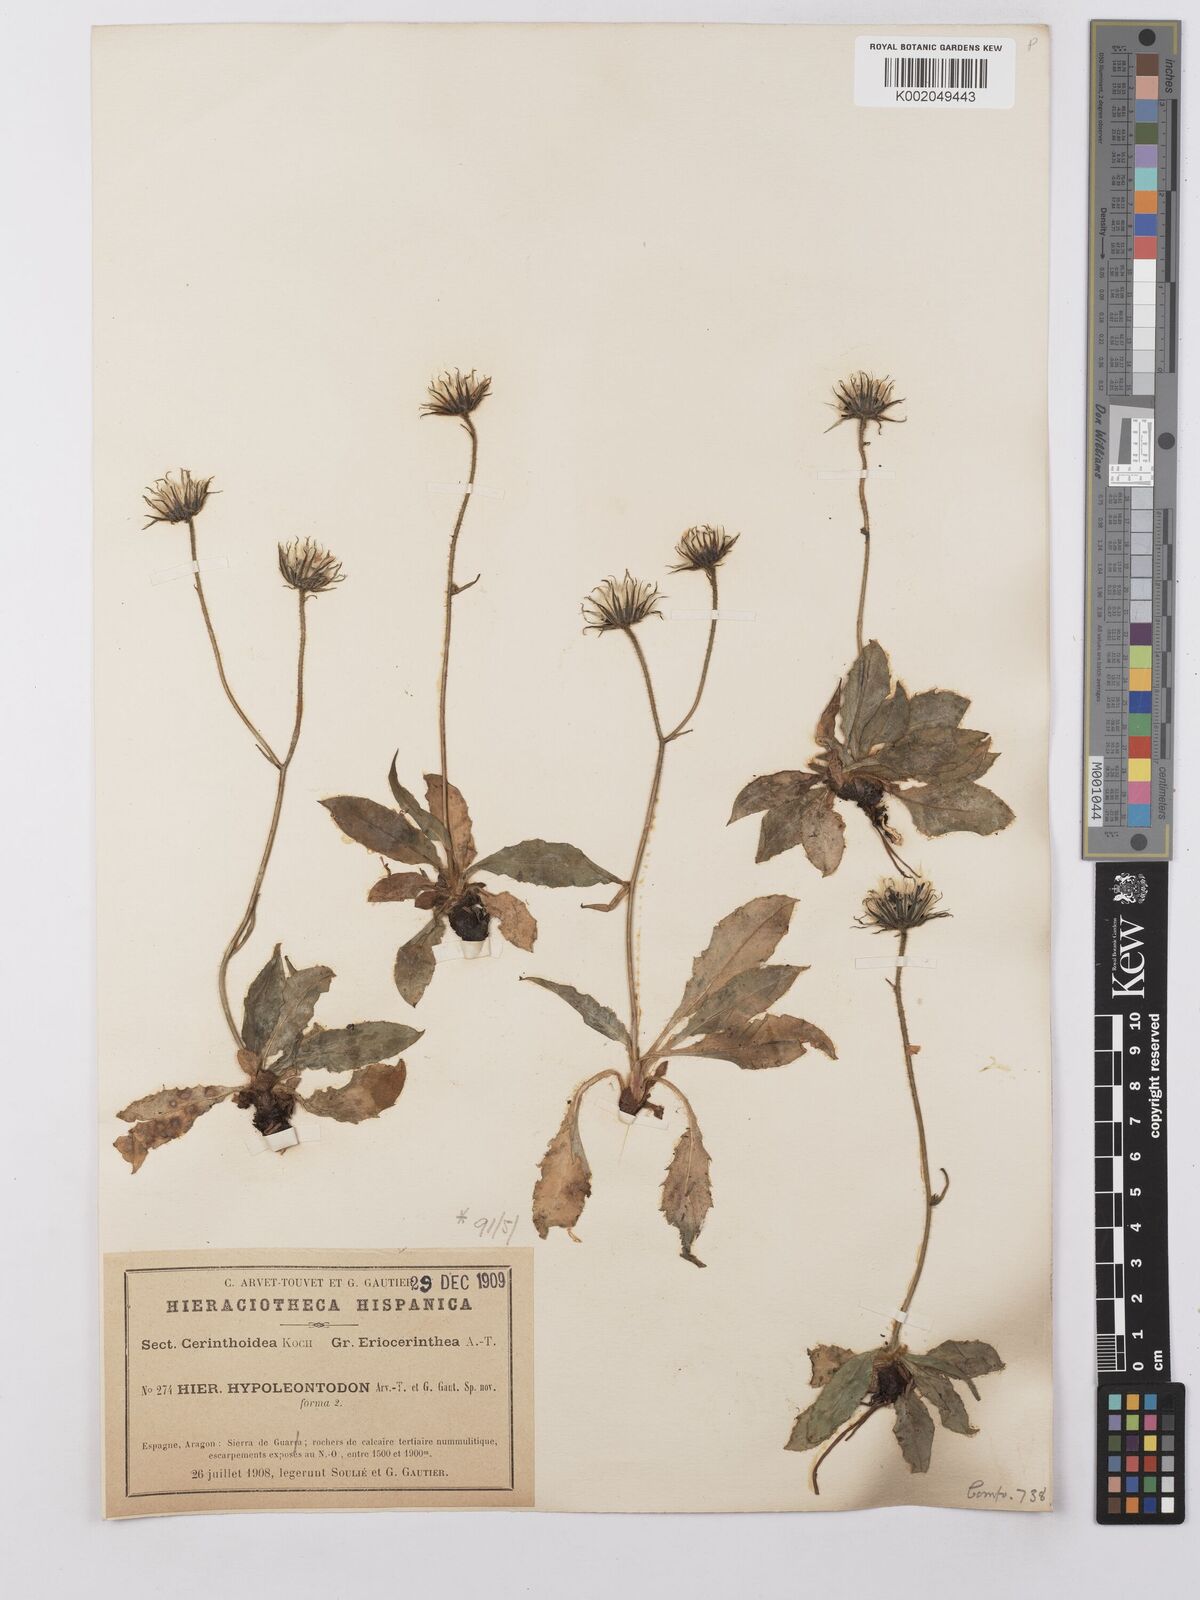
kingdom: Plantae
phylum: Tracheophyta
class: Magnoliopsida
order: Asterales
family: Asteraceae
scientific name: Asteraceae
